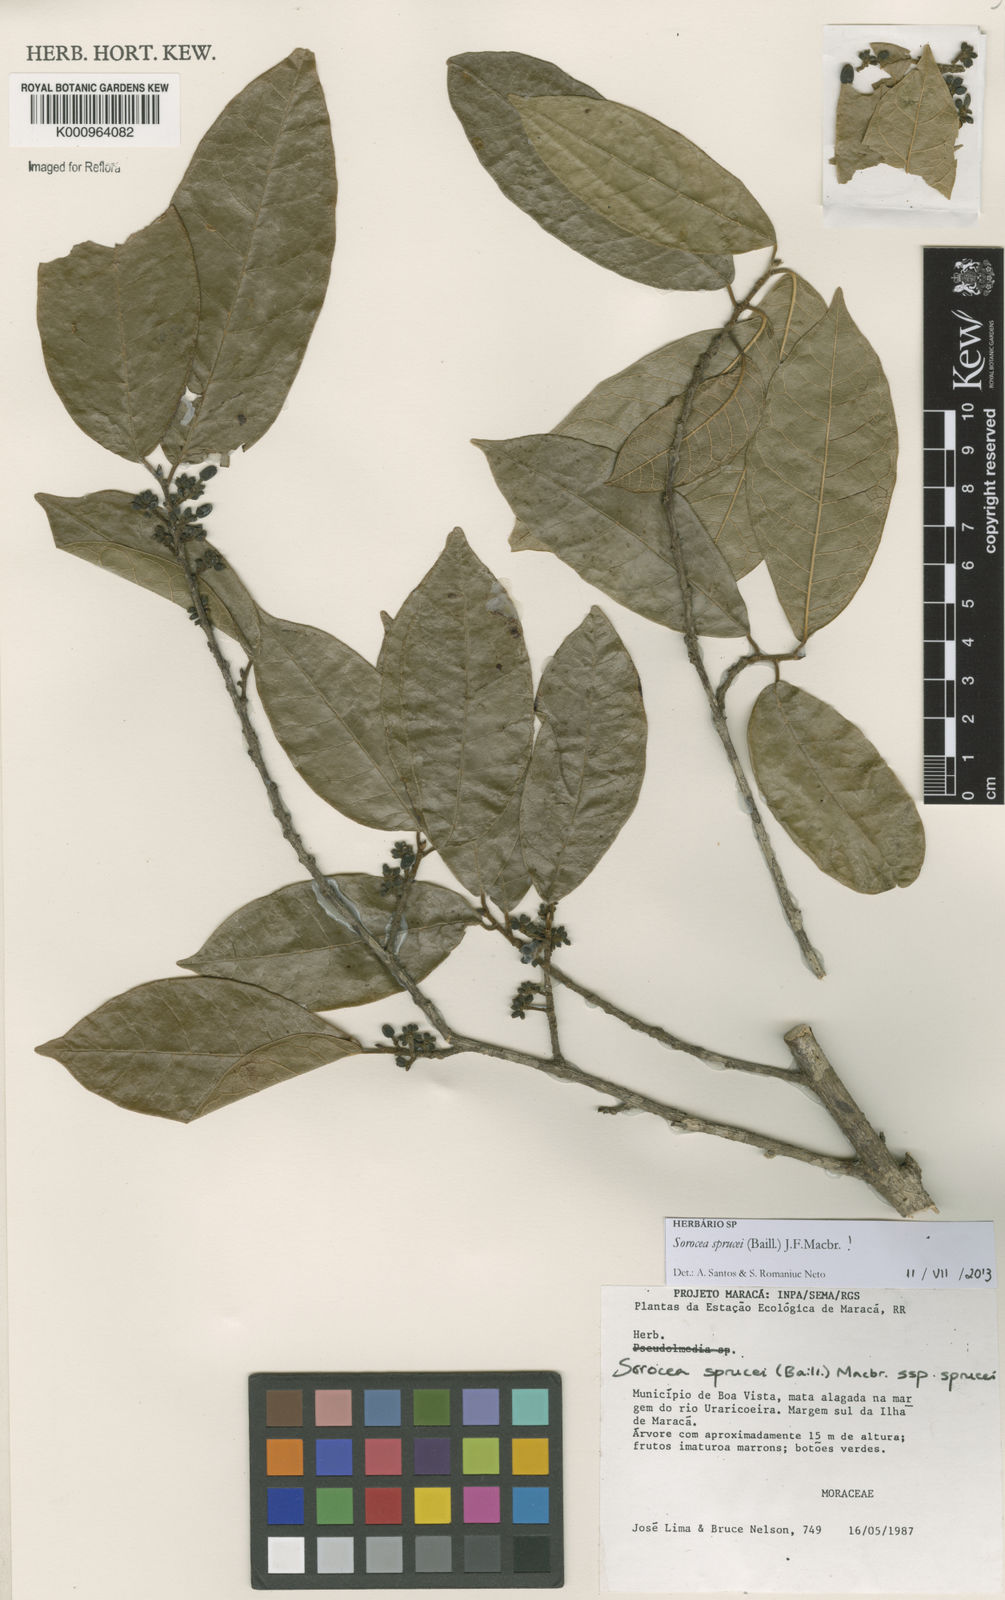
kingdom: Plantae
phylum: Tracheophyta
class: Magnoliopsida
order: Rosales
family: Moraceae
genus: Sorocea
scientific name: Sorocea sprucei
